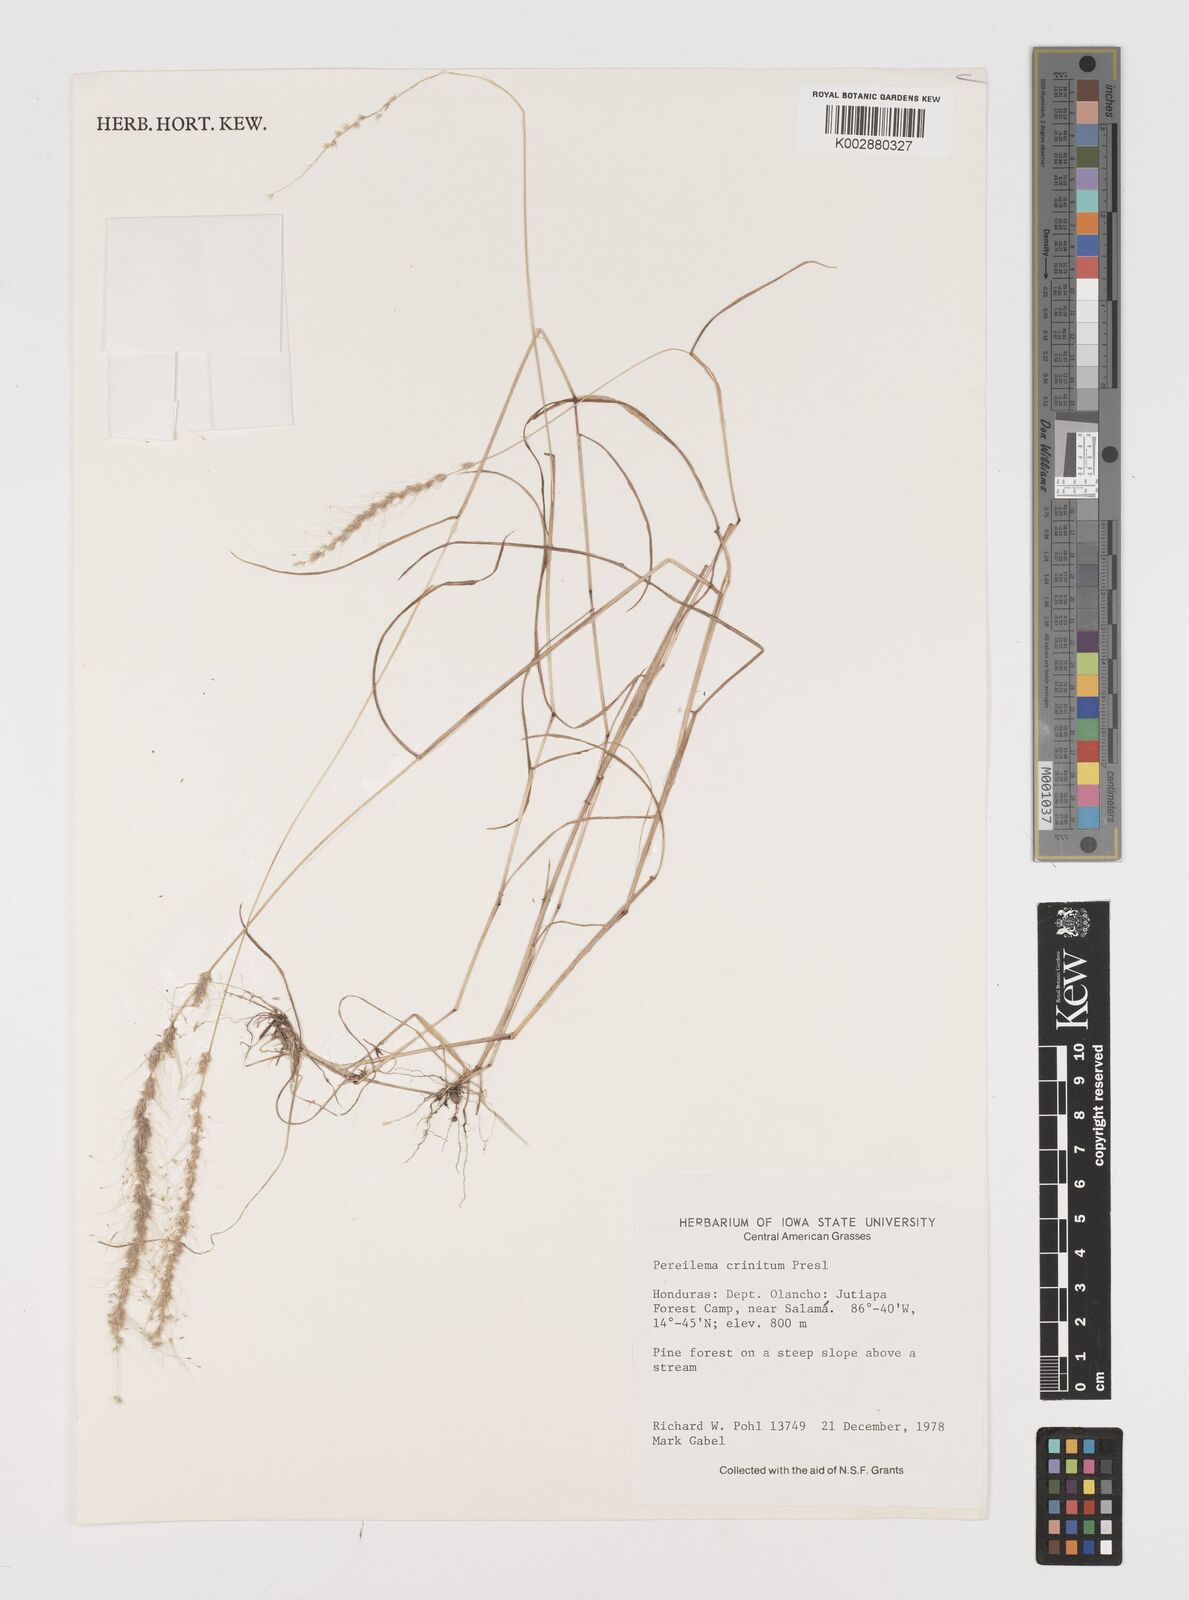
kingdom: Plantae
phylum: Tracheophyta
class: Liliopsida
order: Poales
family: Poaceae
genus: Muhlenbergia
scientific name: Muhlenbergia pereilema
